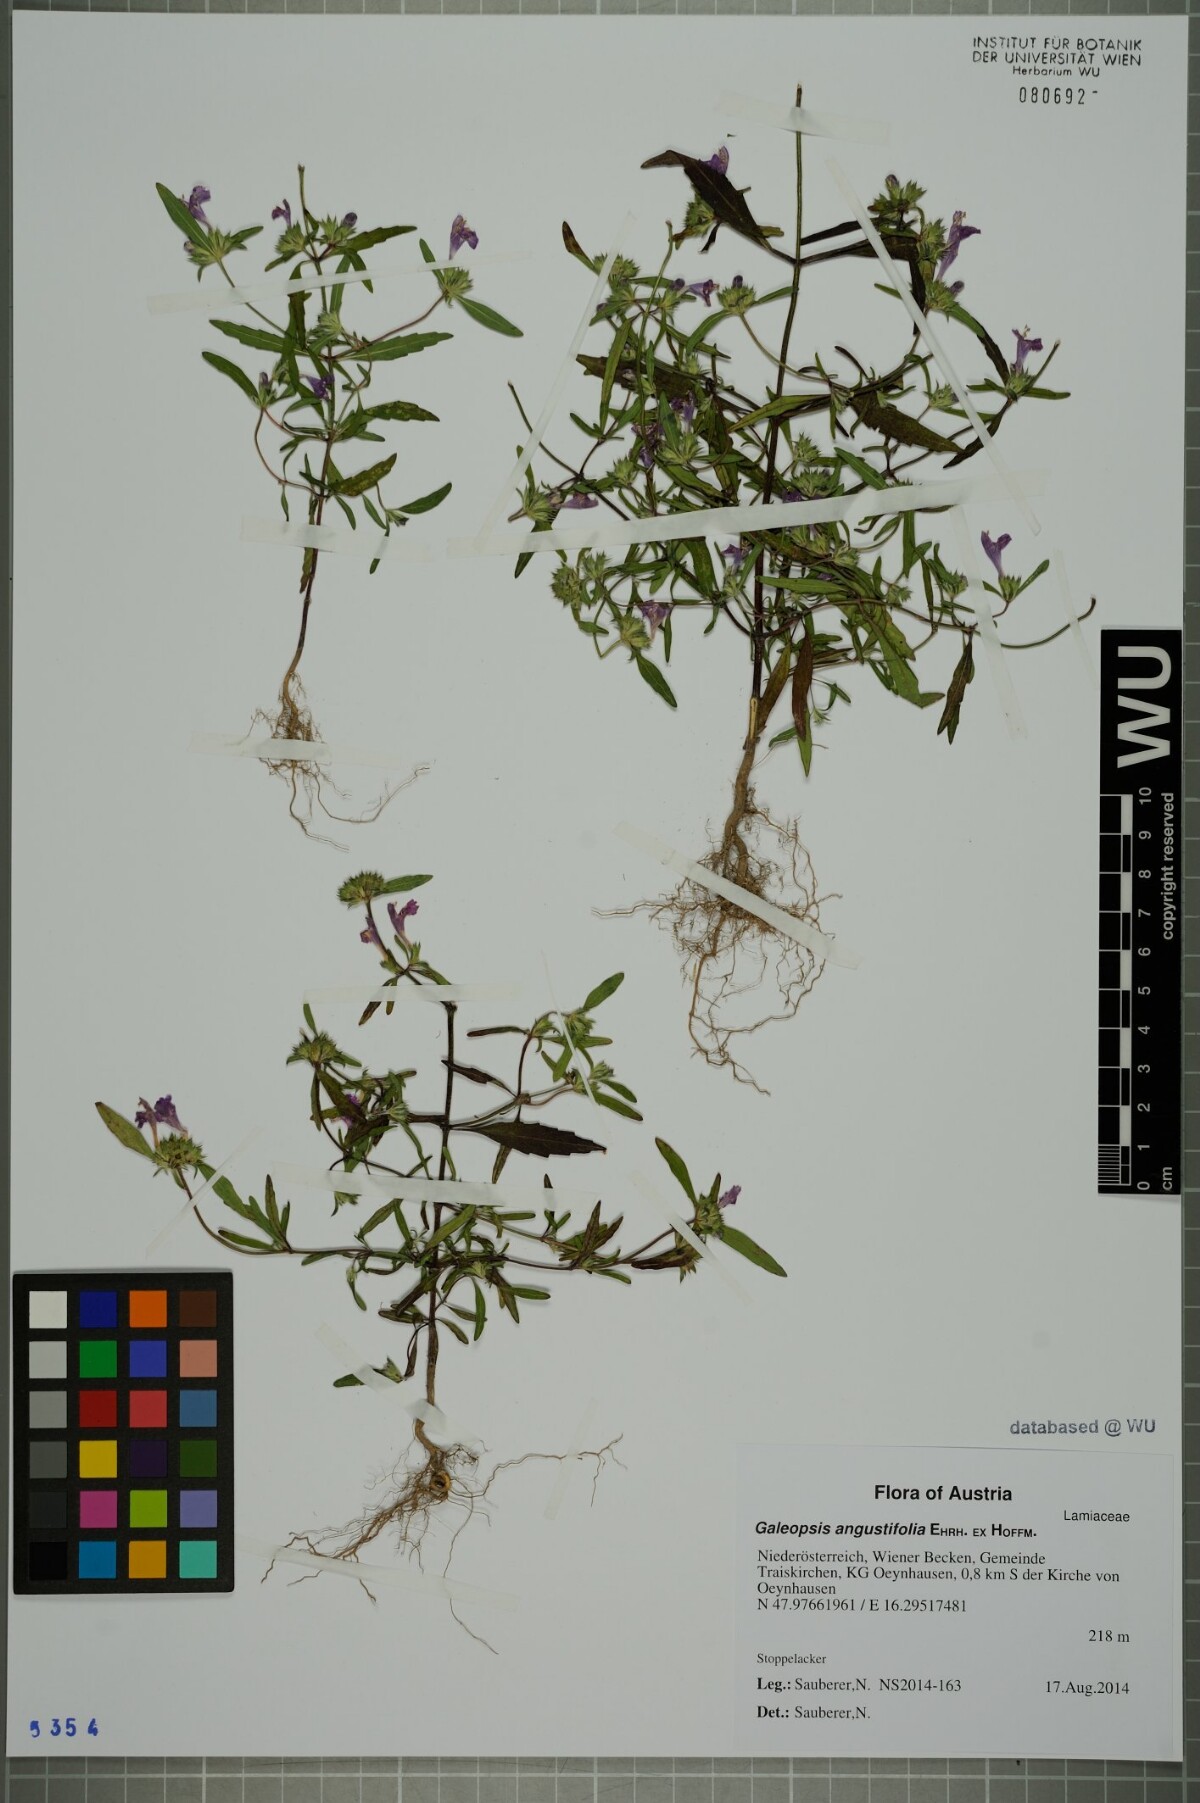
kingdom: Plantae
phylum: Tracheophyta
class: Magnoliopsida
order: Lamiales
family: Lamiaceae
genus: Galeopsis
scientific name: Galeopsis angustifolia
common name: Red hemp-nettle
